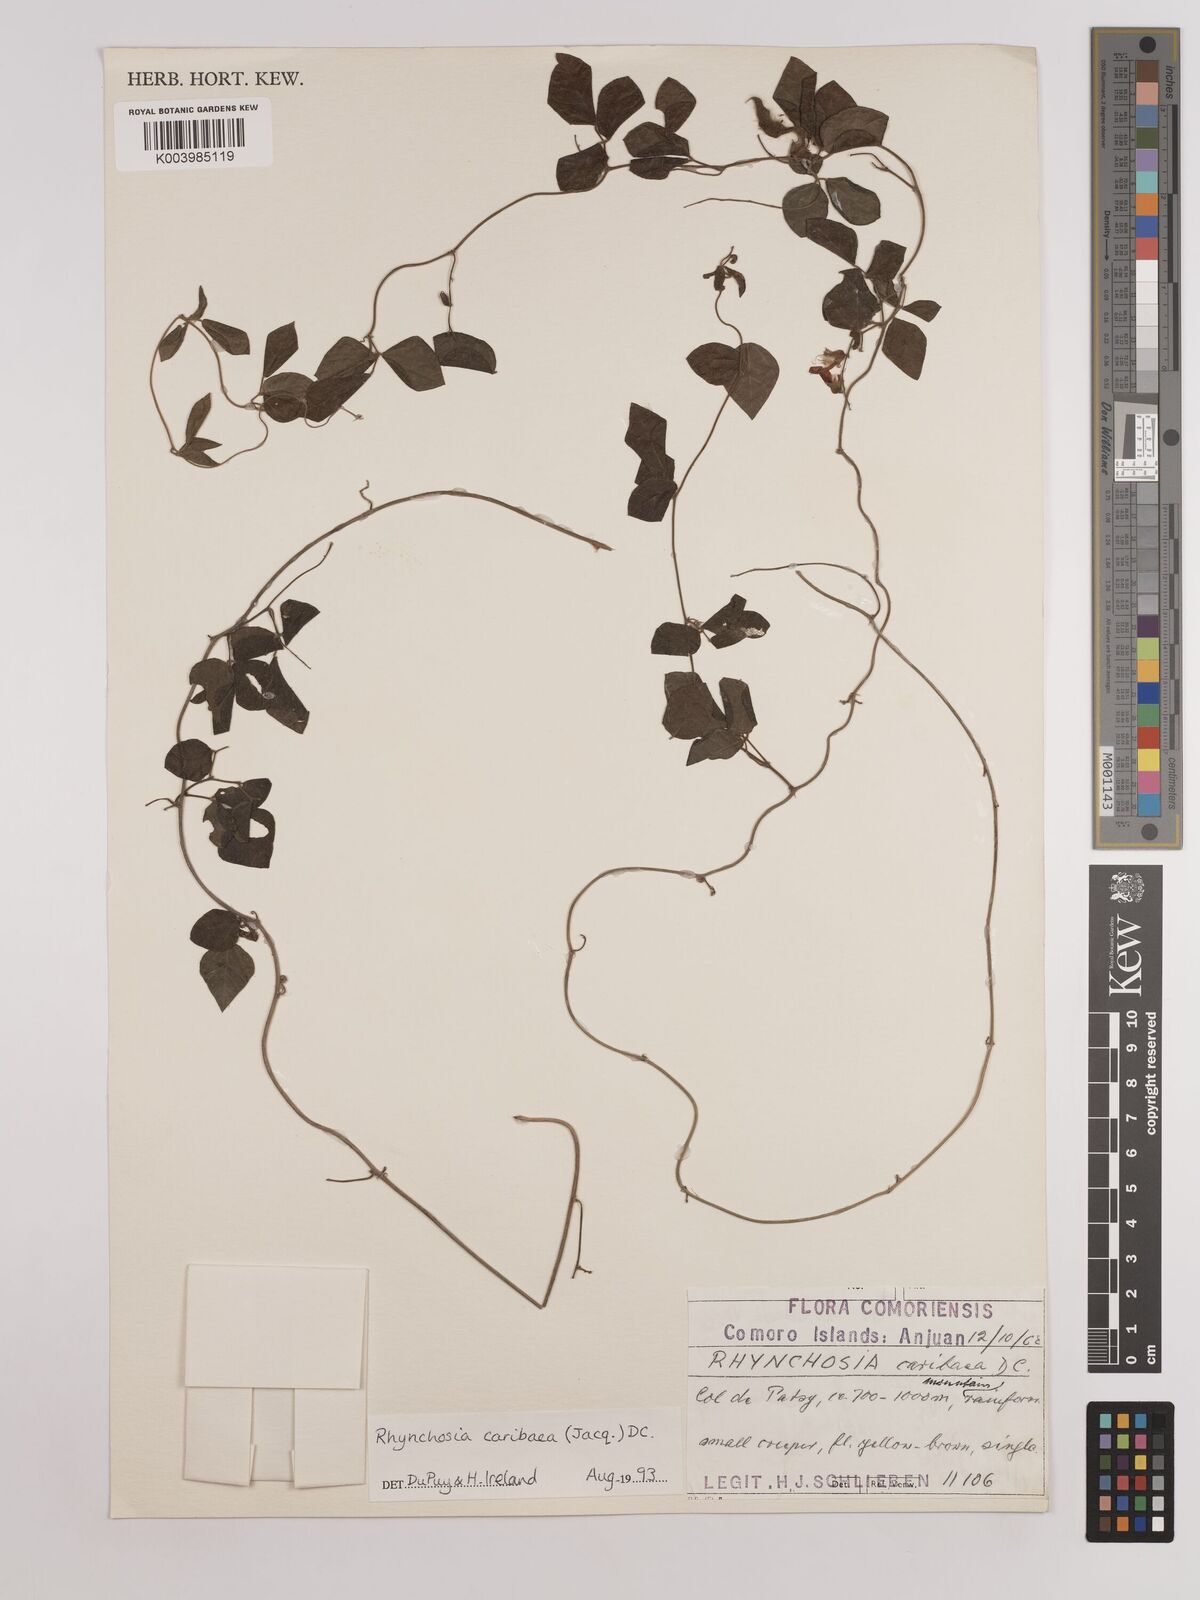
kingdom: Plantae
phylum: Tracheophyta
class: Magnoliopsida
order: Fabales
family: Fabaceae
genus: Rhynchosia
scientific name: Rhynchosia caribaea
